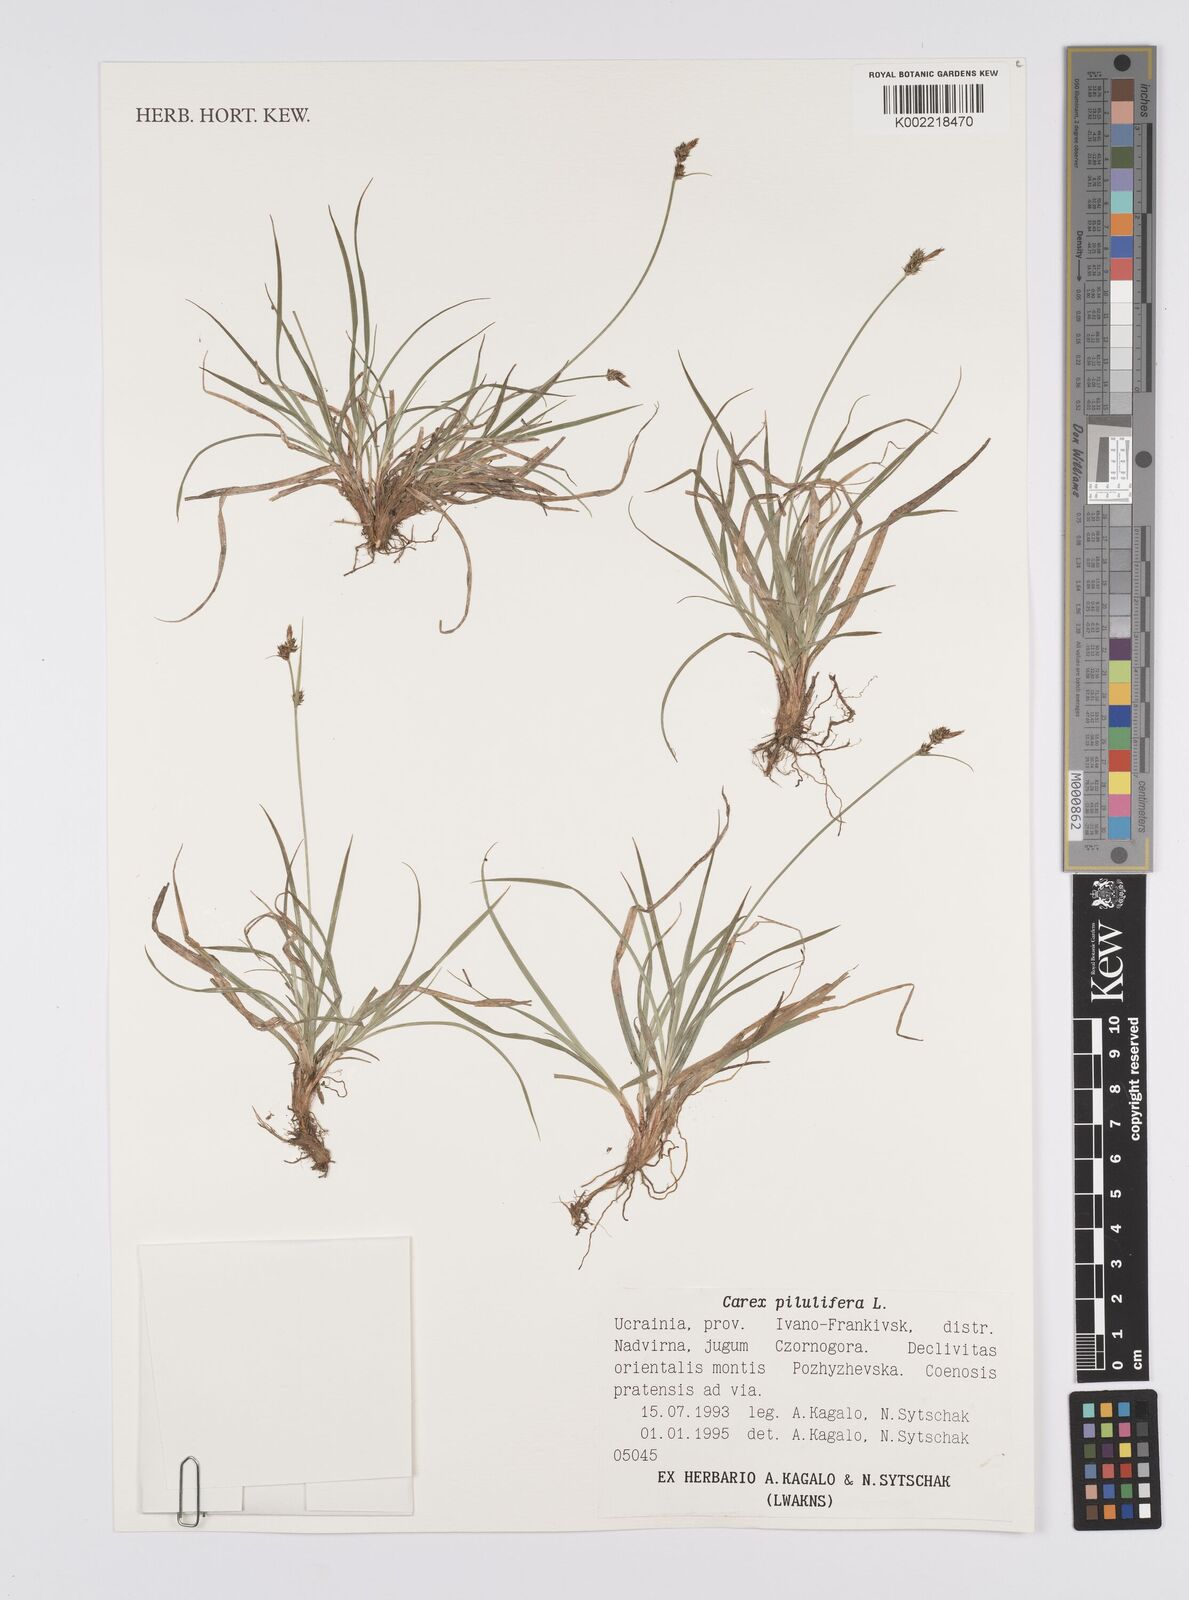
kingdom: Plantae
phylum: Tracheophyta
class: Liliopsida
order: Poales
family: Cyperaceae
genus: Carex
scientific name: Carex pilulifera
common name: Pill sedge
